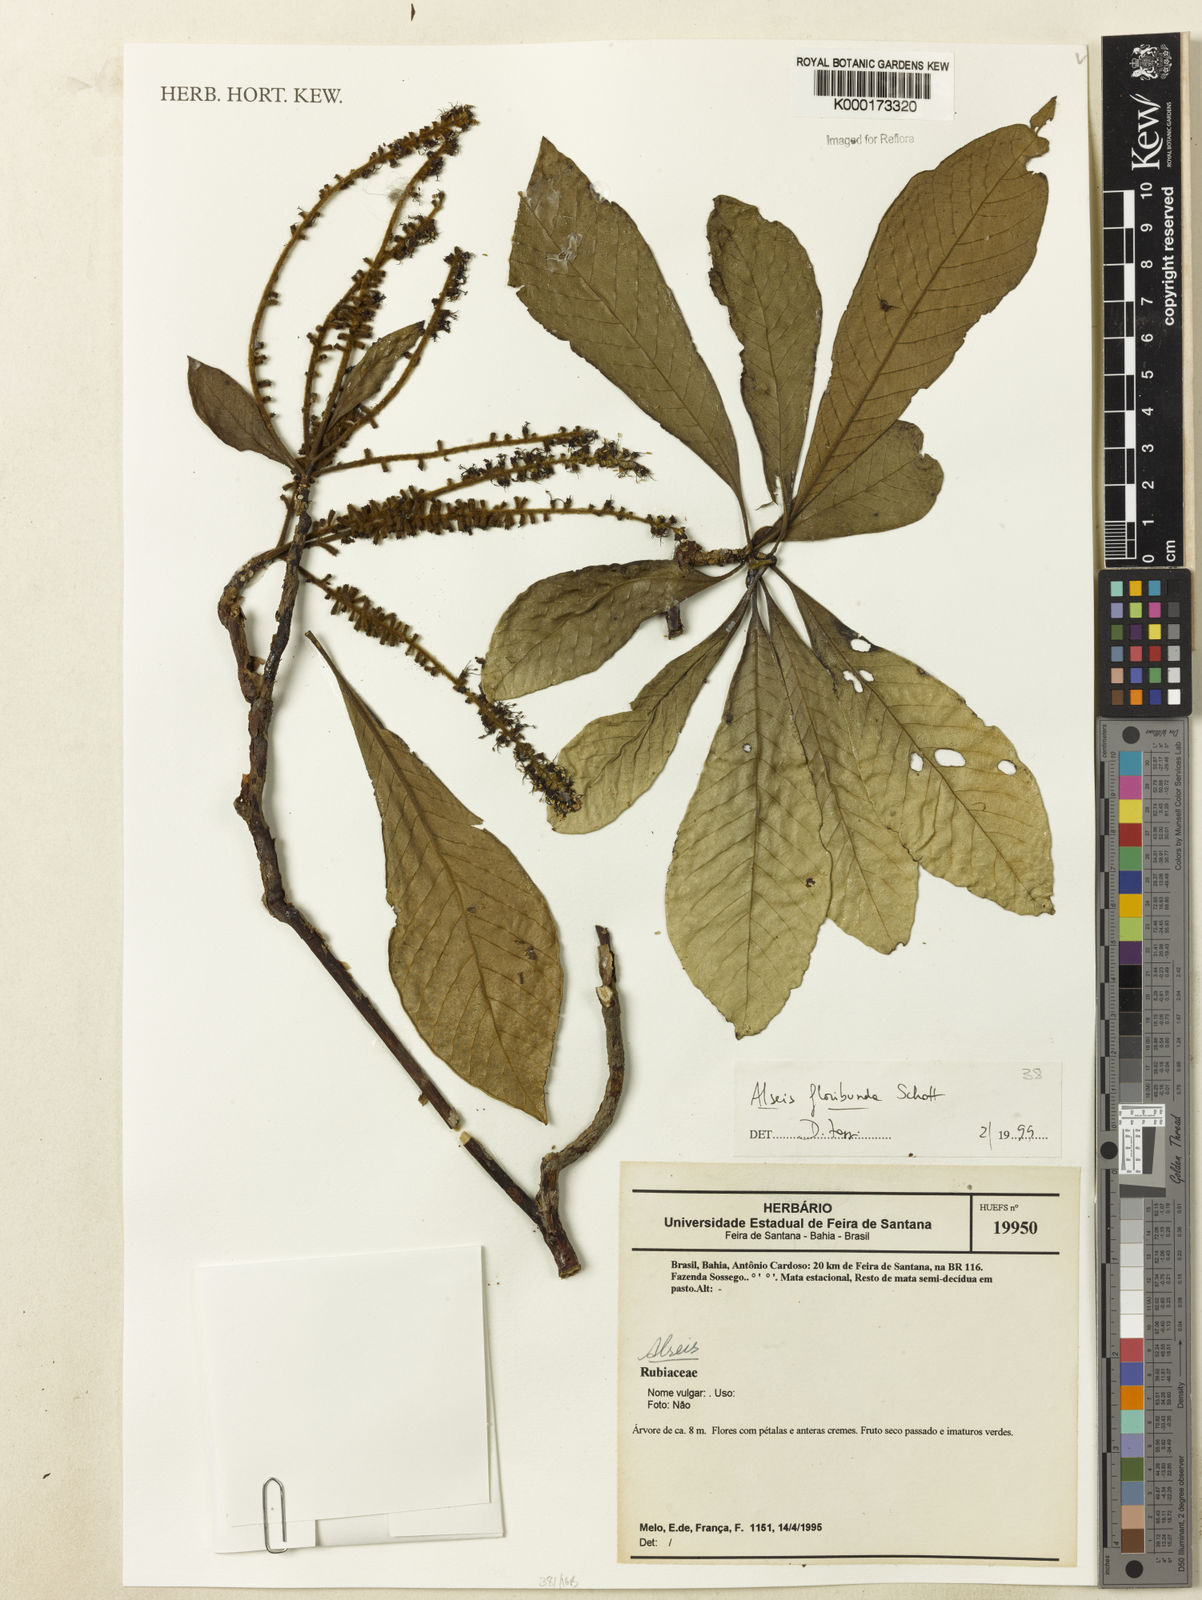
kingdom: Plantae
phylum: Tracheophyta
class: Magnoliopsida
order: Gentianales
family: Rubiaceae
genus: Alseis
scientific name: Alseis floribunda
